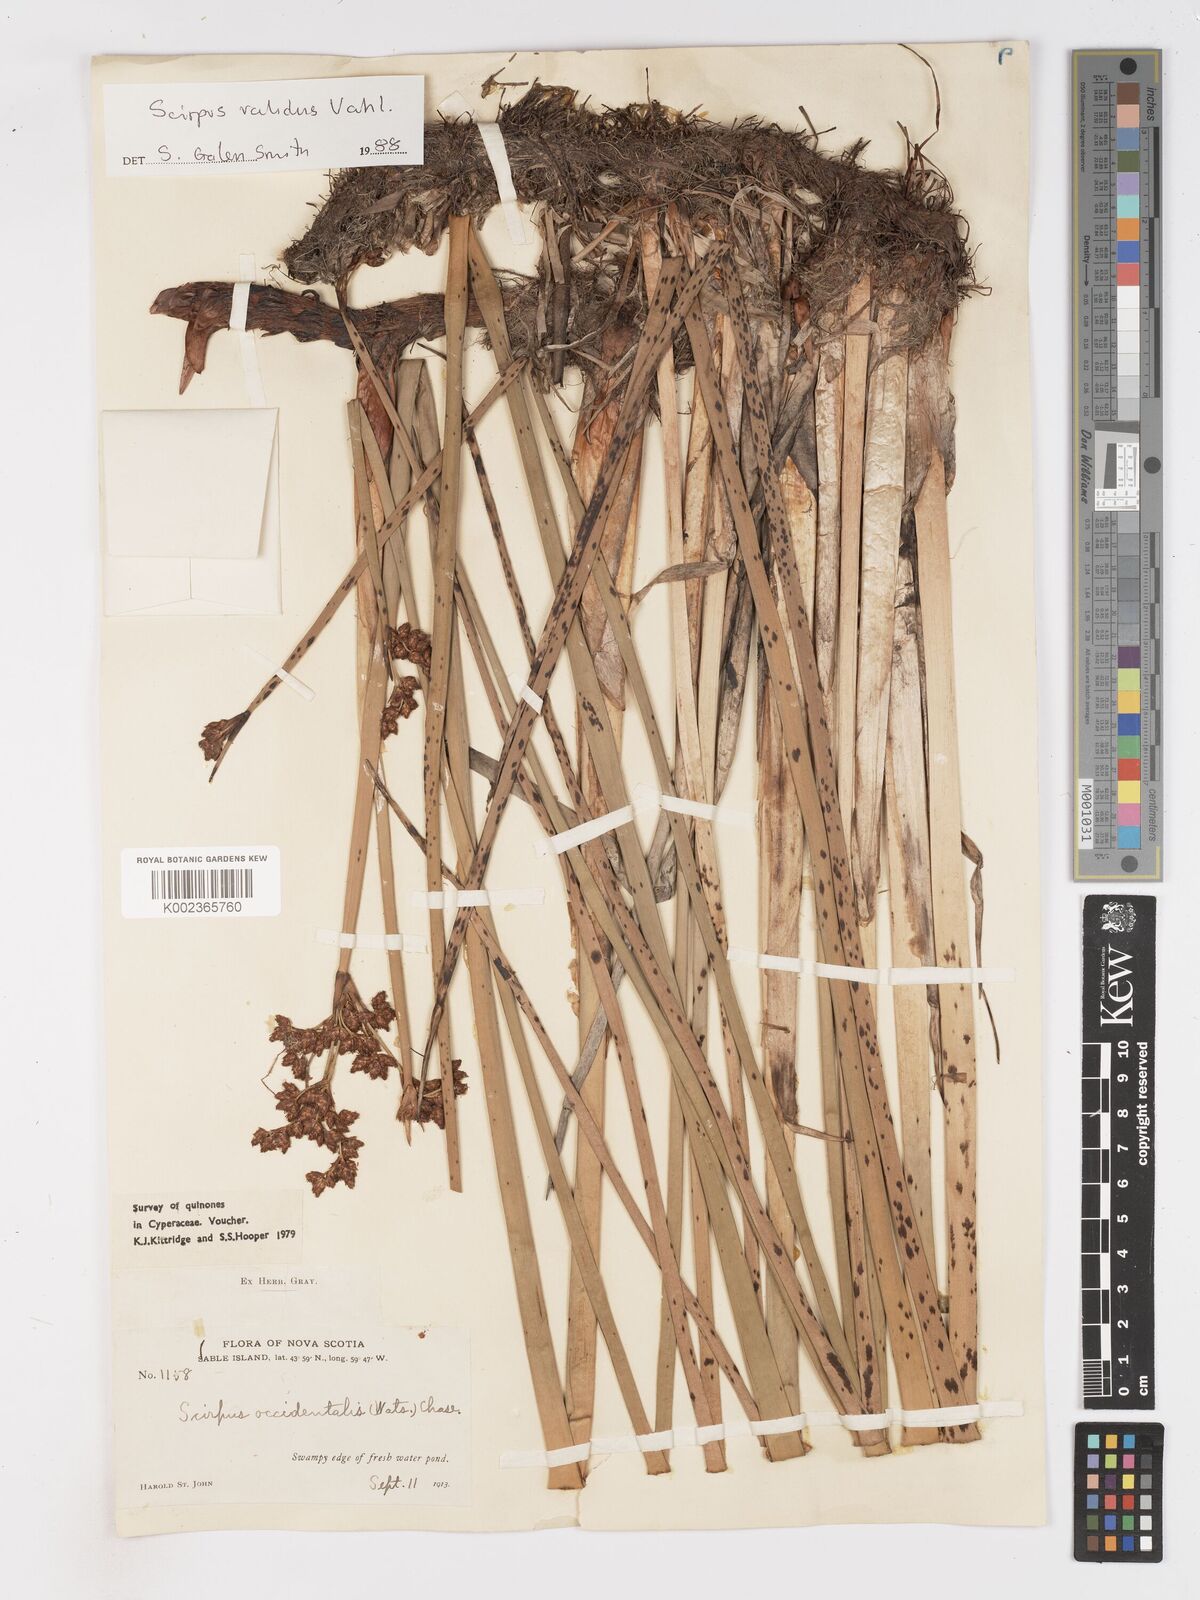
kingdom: Plantae
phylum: Tracheophyta
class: Liliopsida
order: Poales
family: Cyperaceae
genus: Schoenoplectus
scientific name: Schoenoplectus
